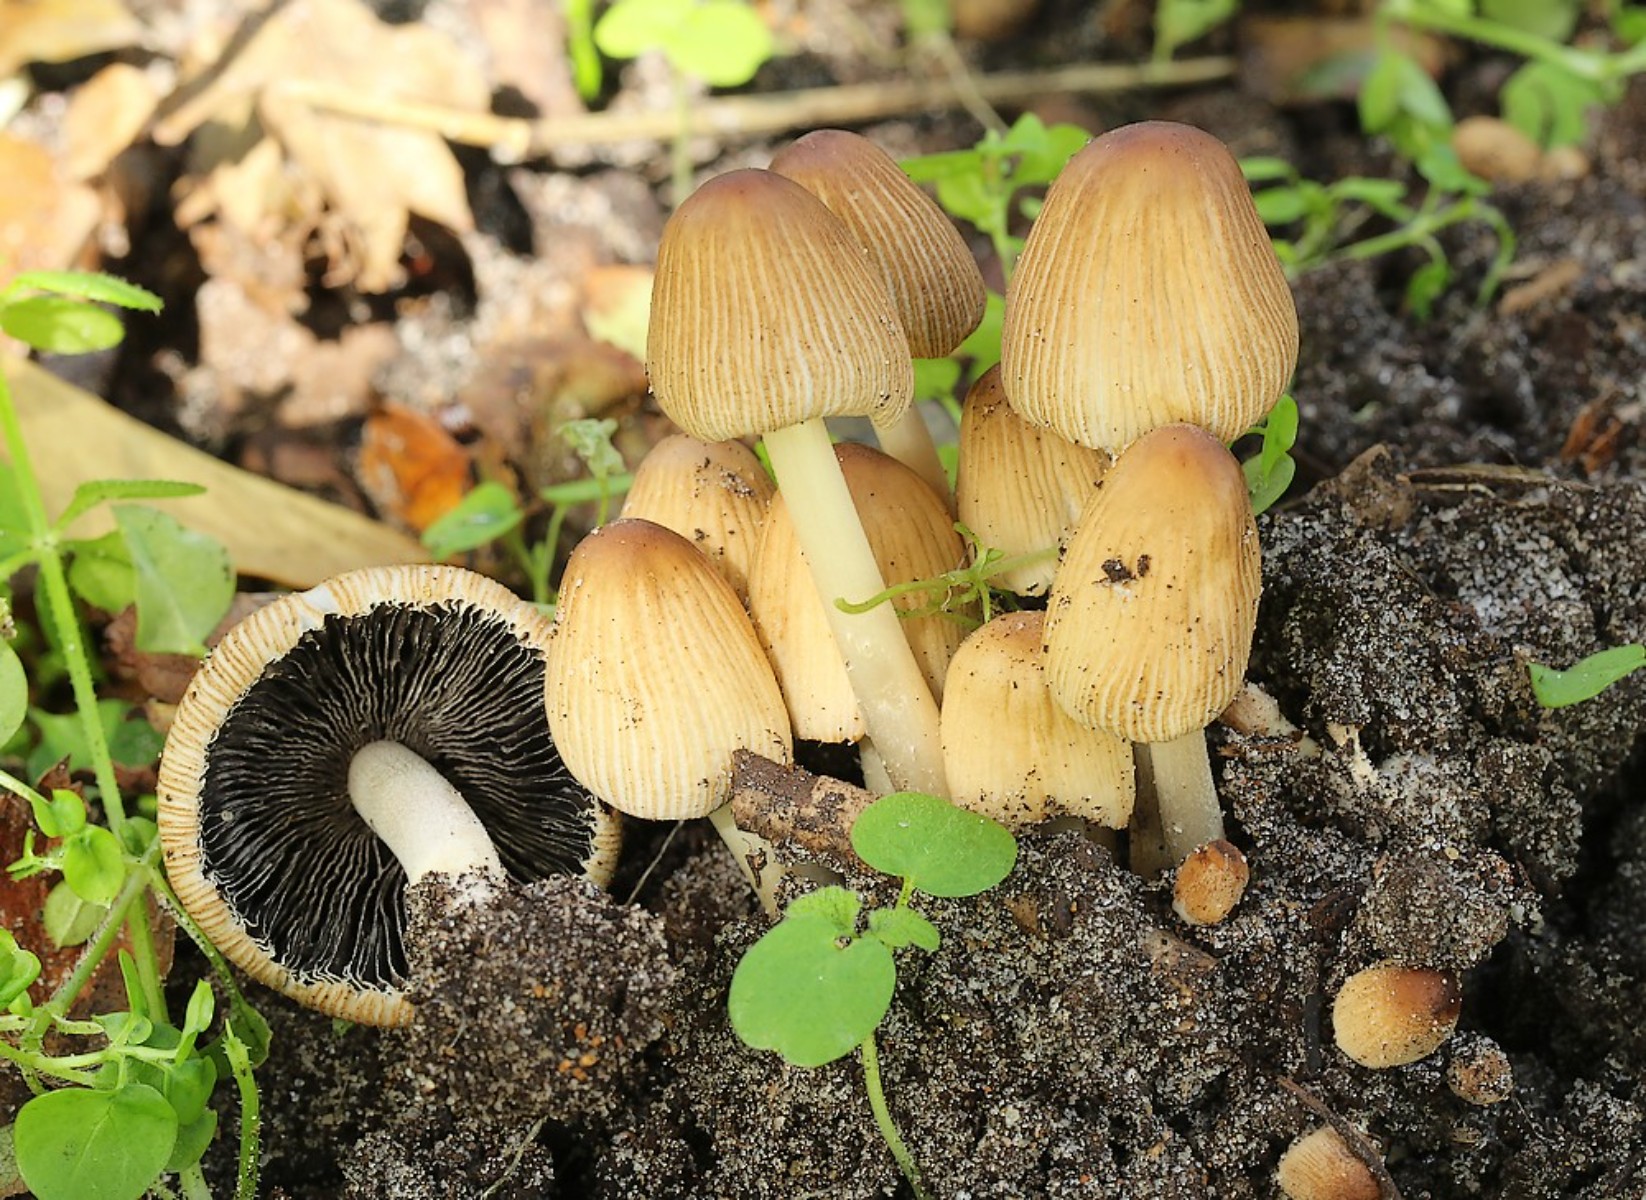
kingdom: Fungi
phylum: Basidiomycota
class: Agaricomycetes
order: Agaricales
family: Psathyrellaceae
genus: Coprinellus
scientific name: Coprinellus micaceus
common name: glimmer-blækhat
